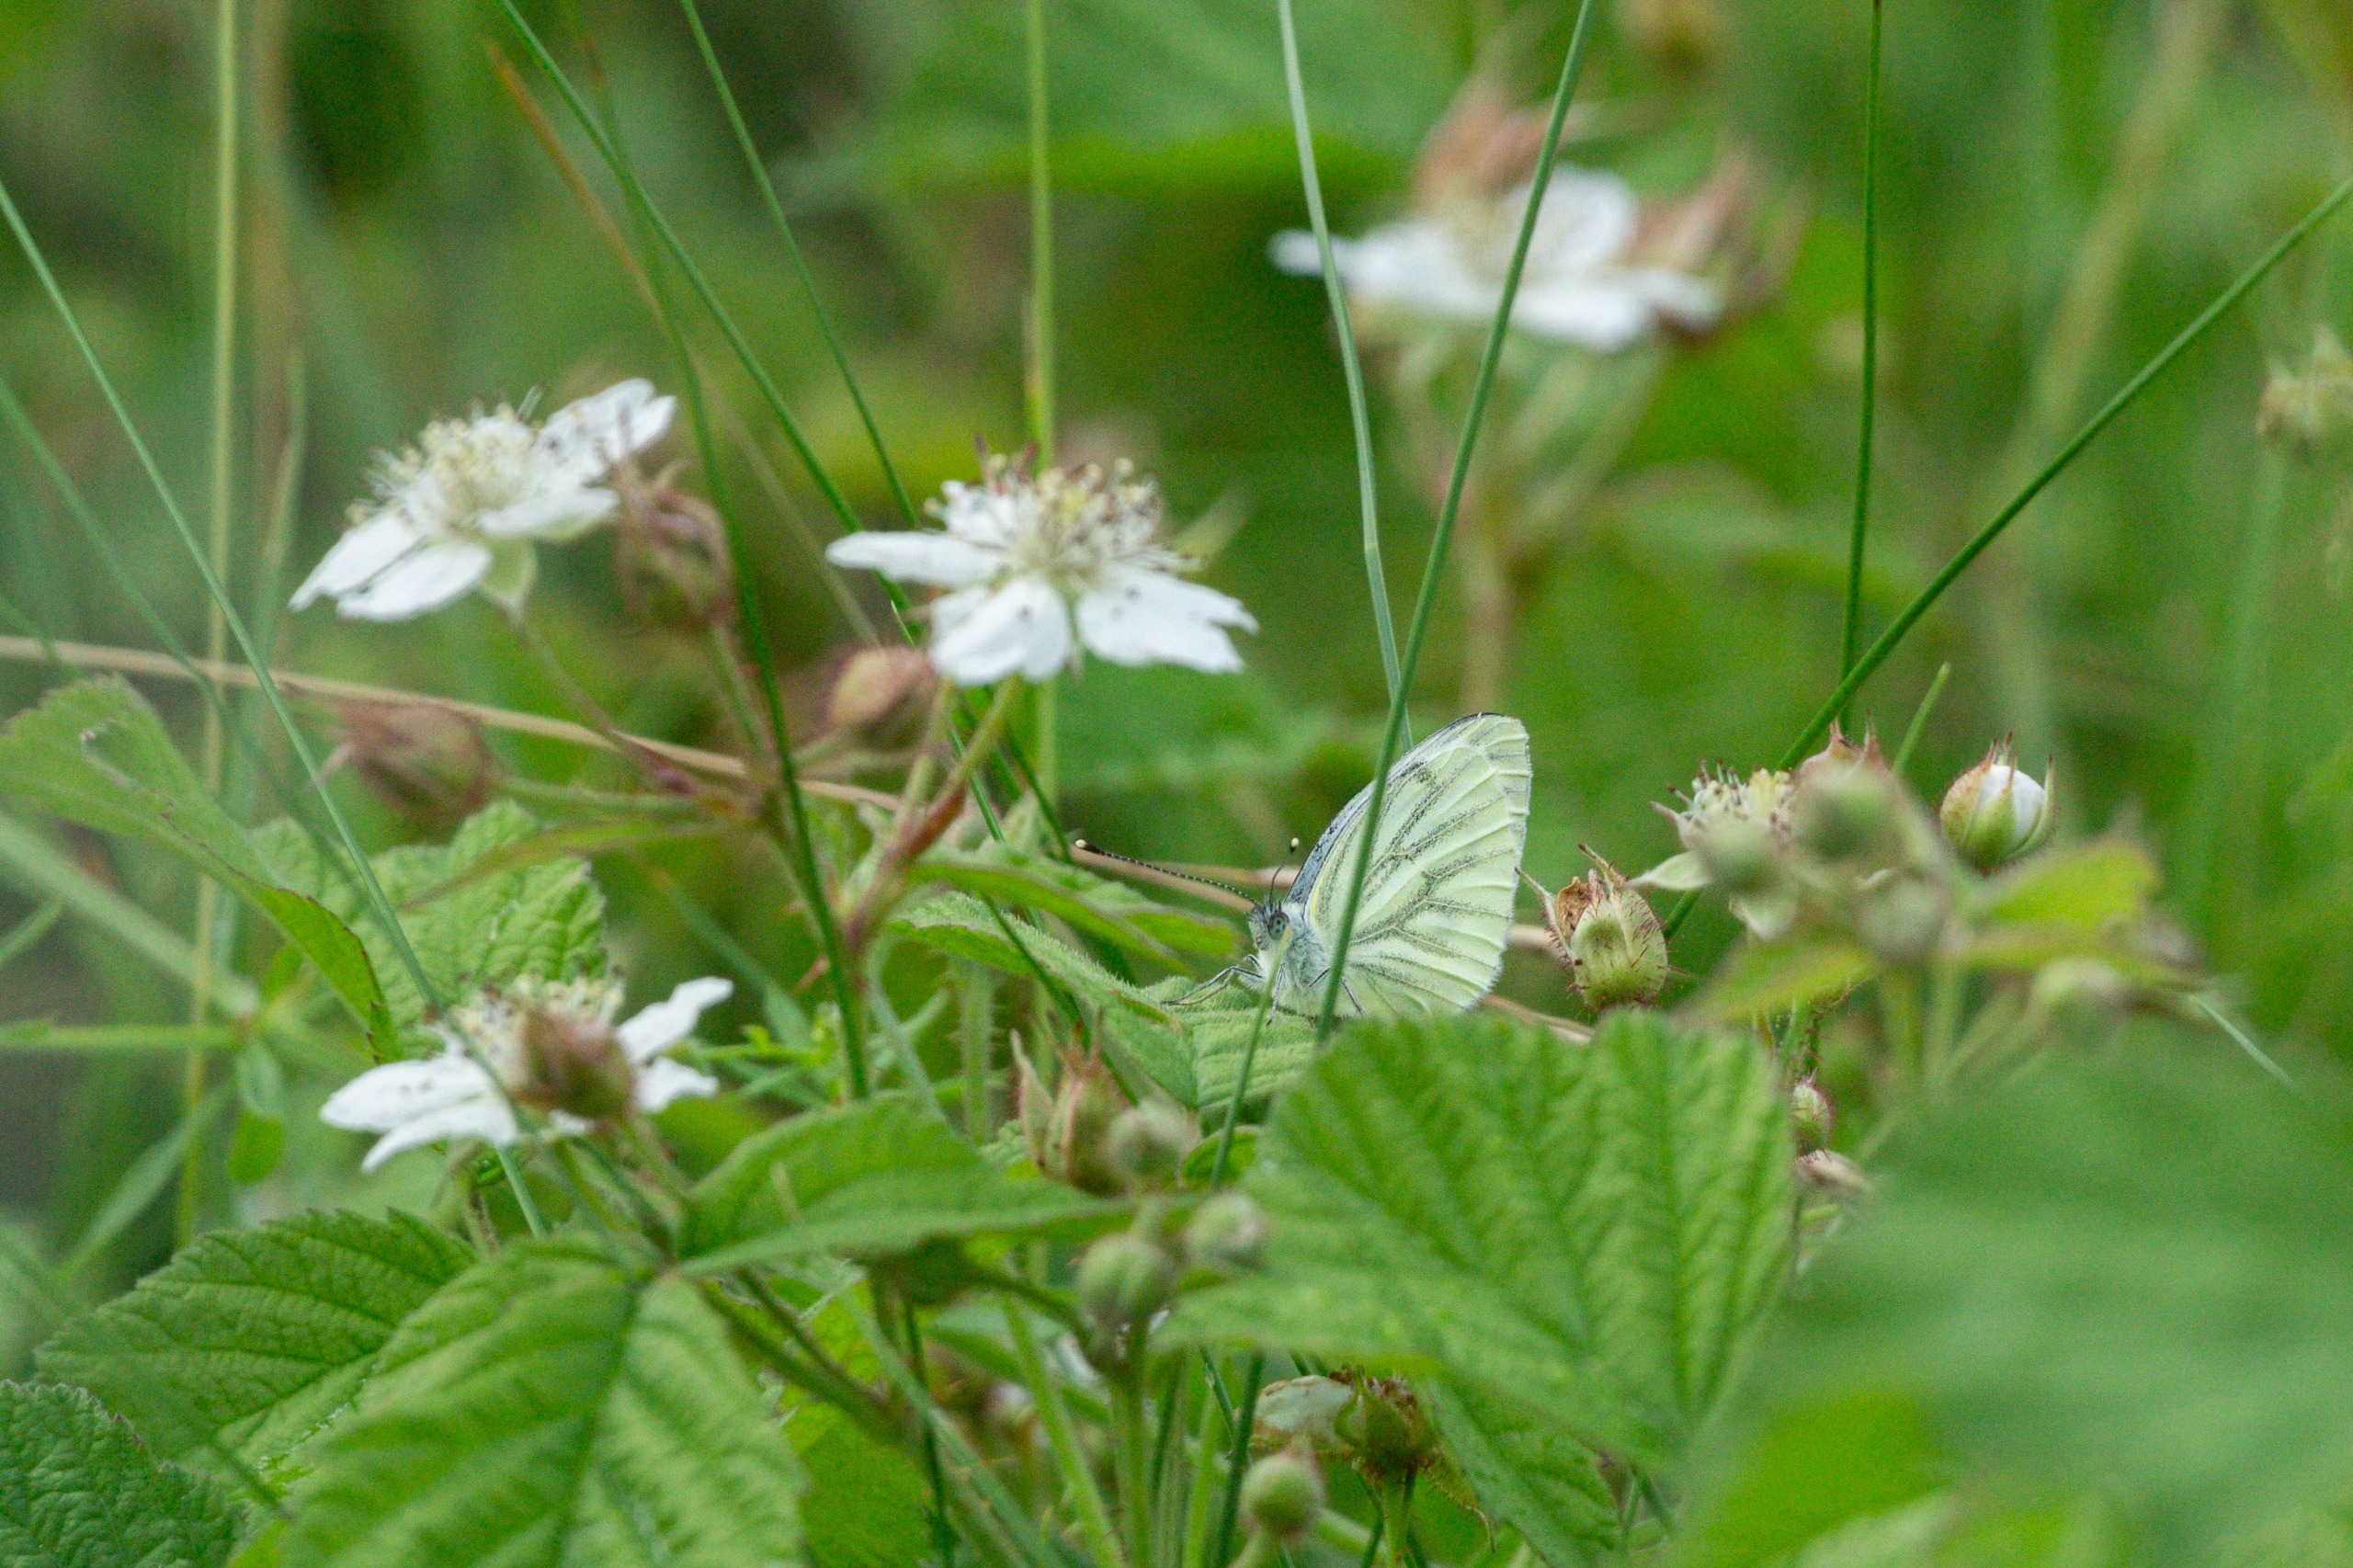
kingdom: Animalia
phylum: Arthropoda
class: Insecta
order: Lepidoptera
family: Pieridae
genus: Pieris
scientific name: Pieris napi
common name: Grønåret kålsommerfugl
